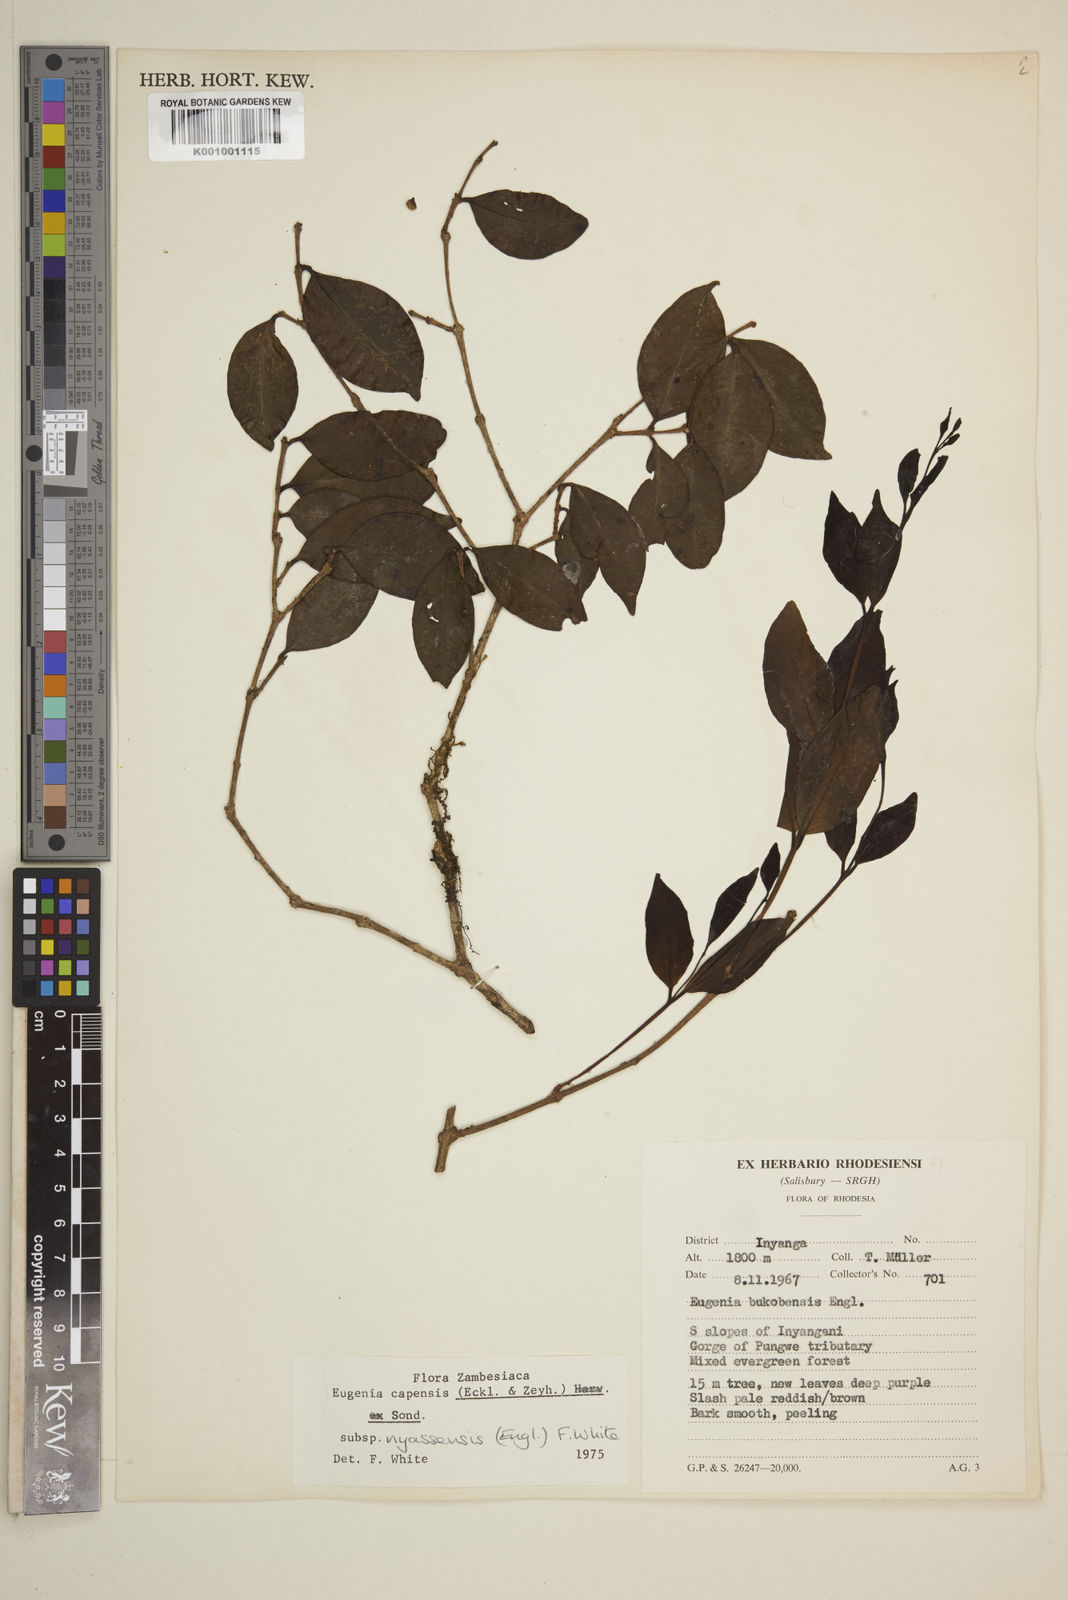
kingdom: Plantae
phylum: Tracheophyta
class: Magnoliopsida
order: Myrtales
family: Myrtaceae
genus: Eugenia
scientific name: Eugenia capensis
